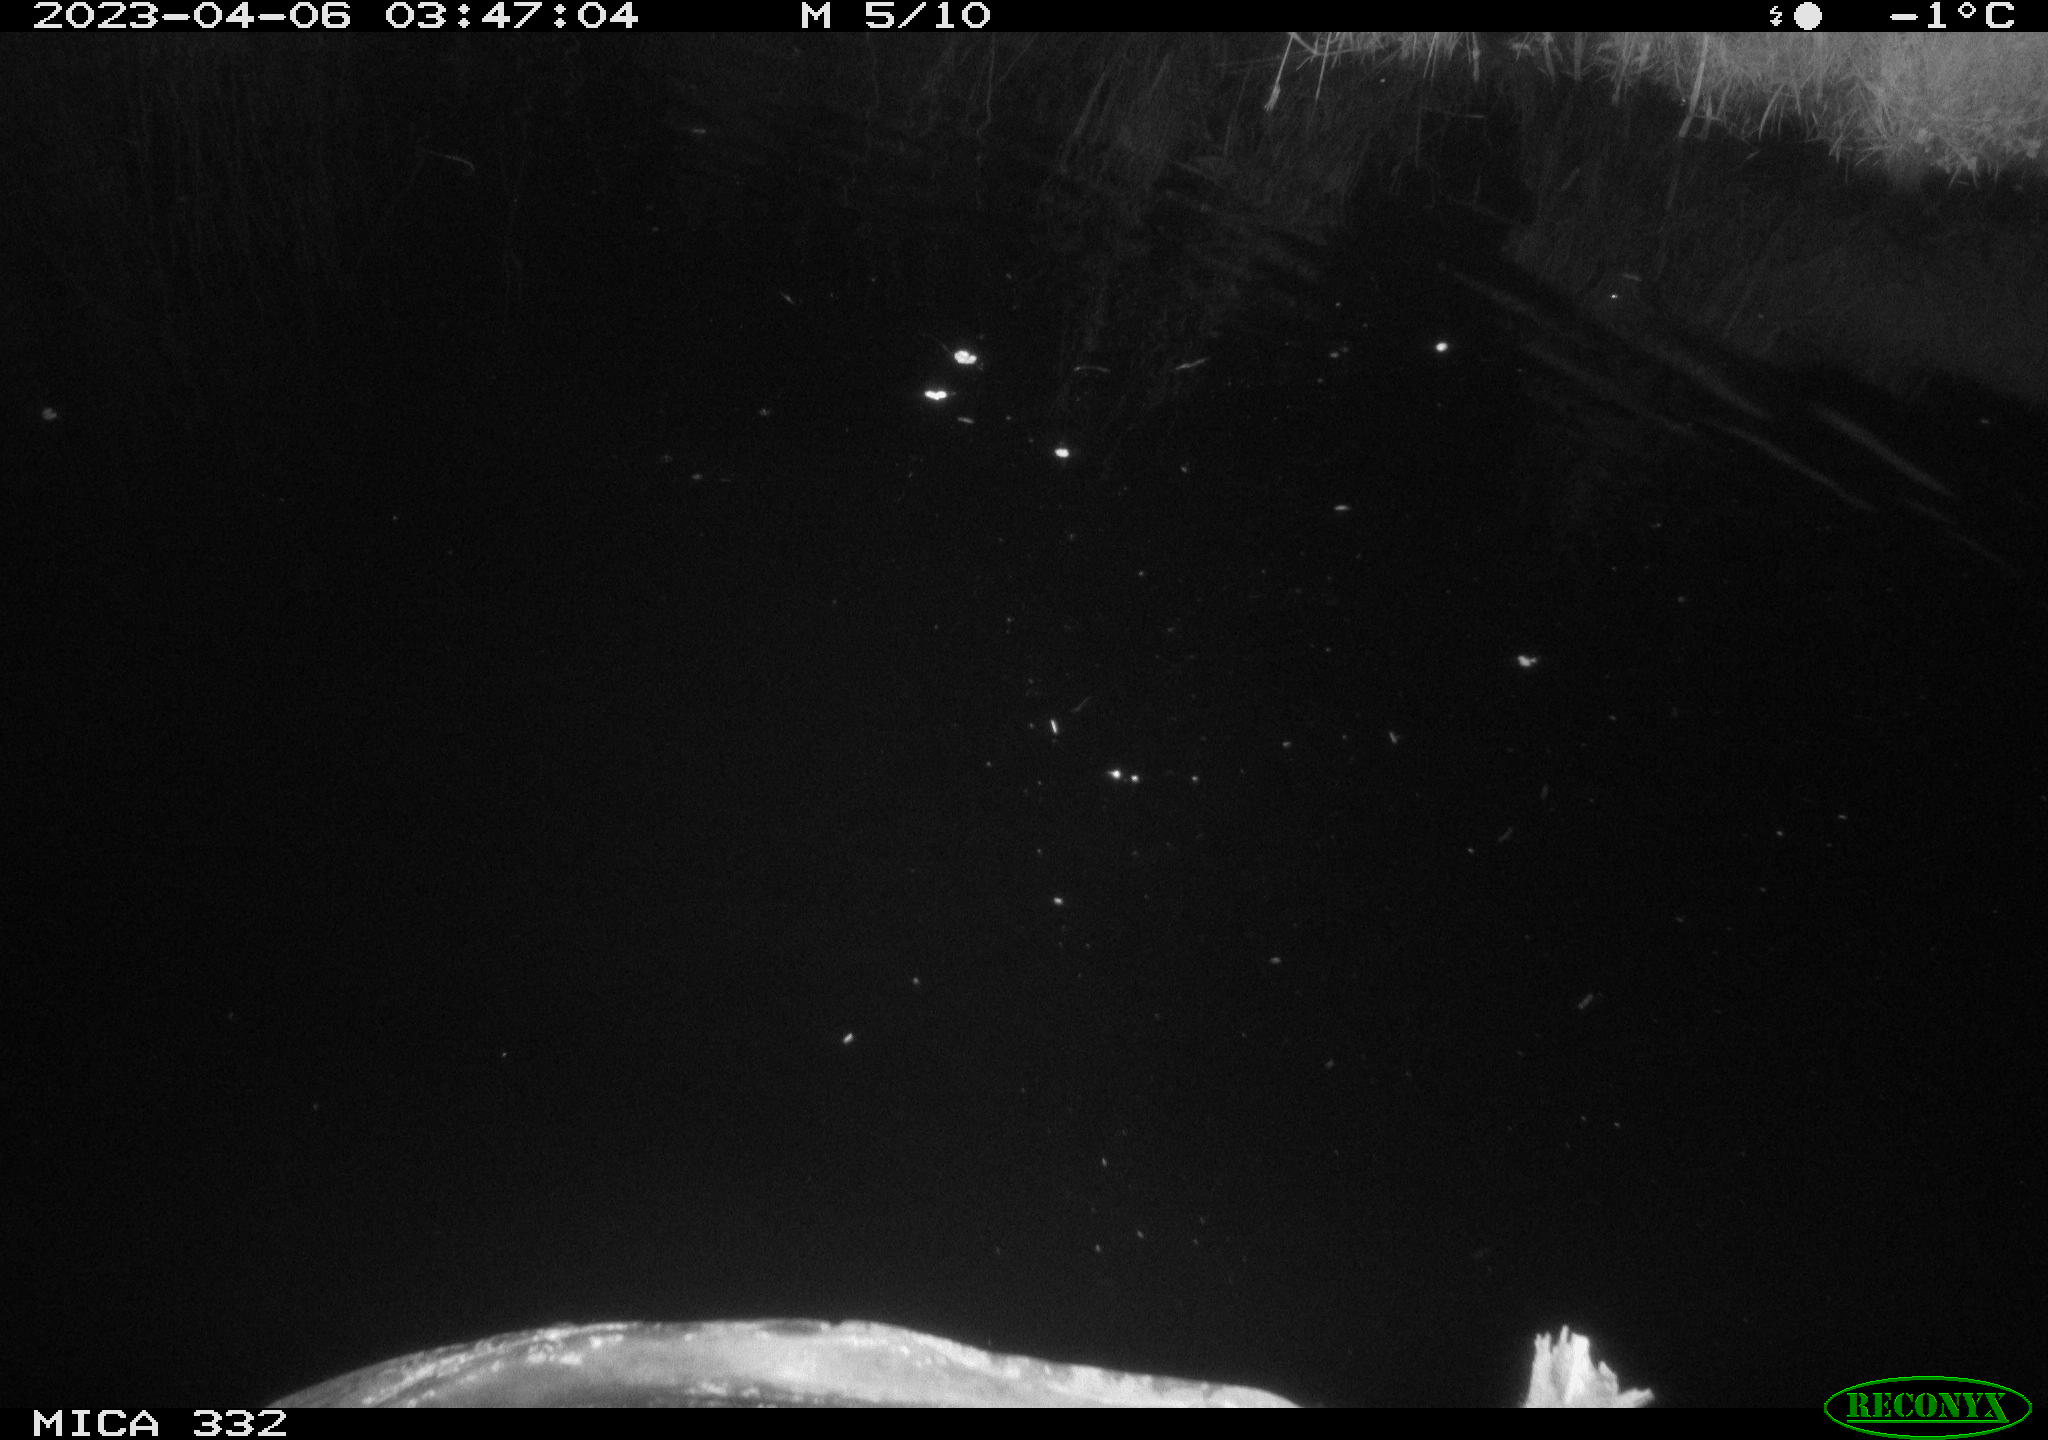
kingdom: Animalia
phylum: Chordata
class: Aves
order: Anseriformes
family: Anatidae
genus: Anas
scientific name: Anas platyrhynchos
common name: Mallard
